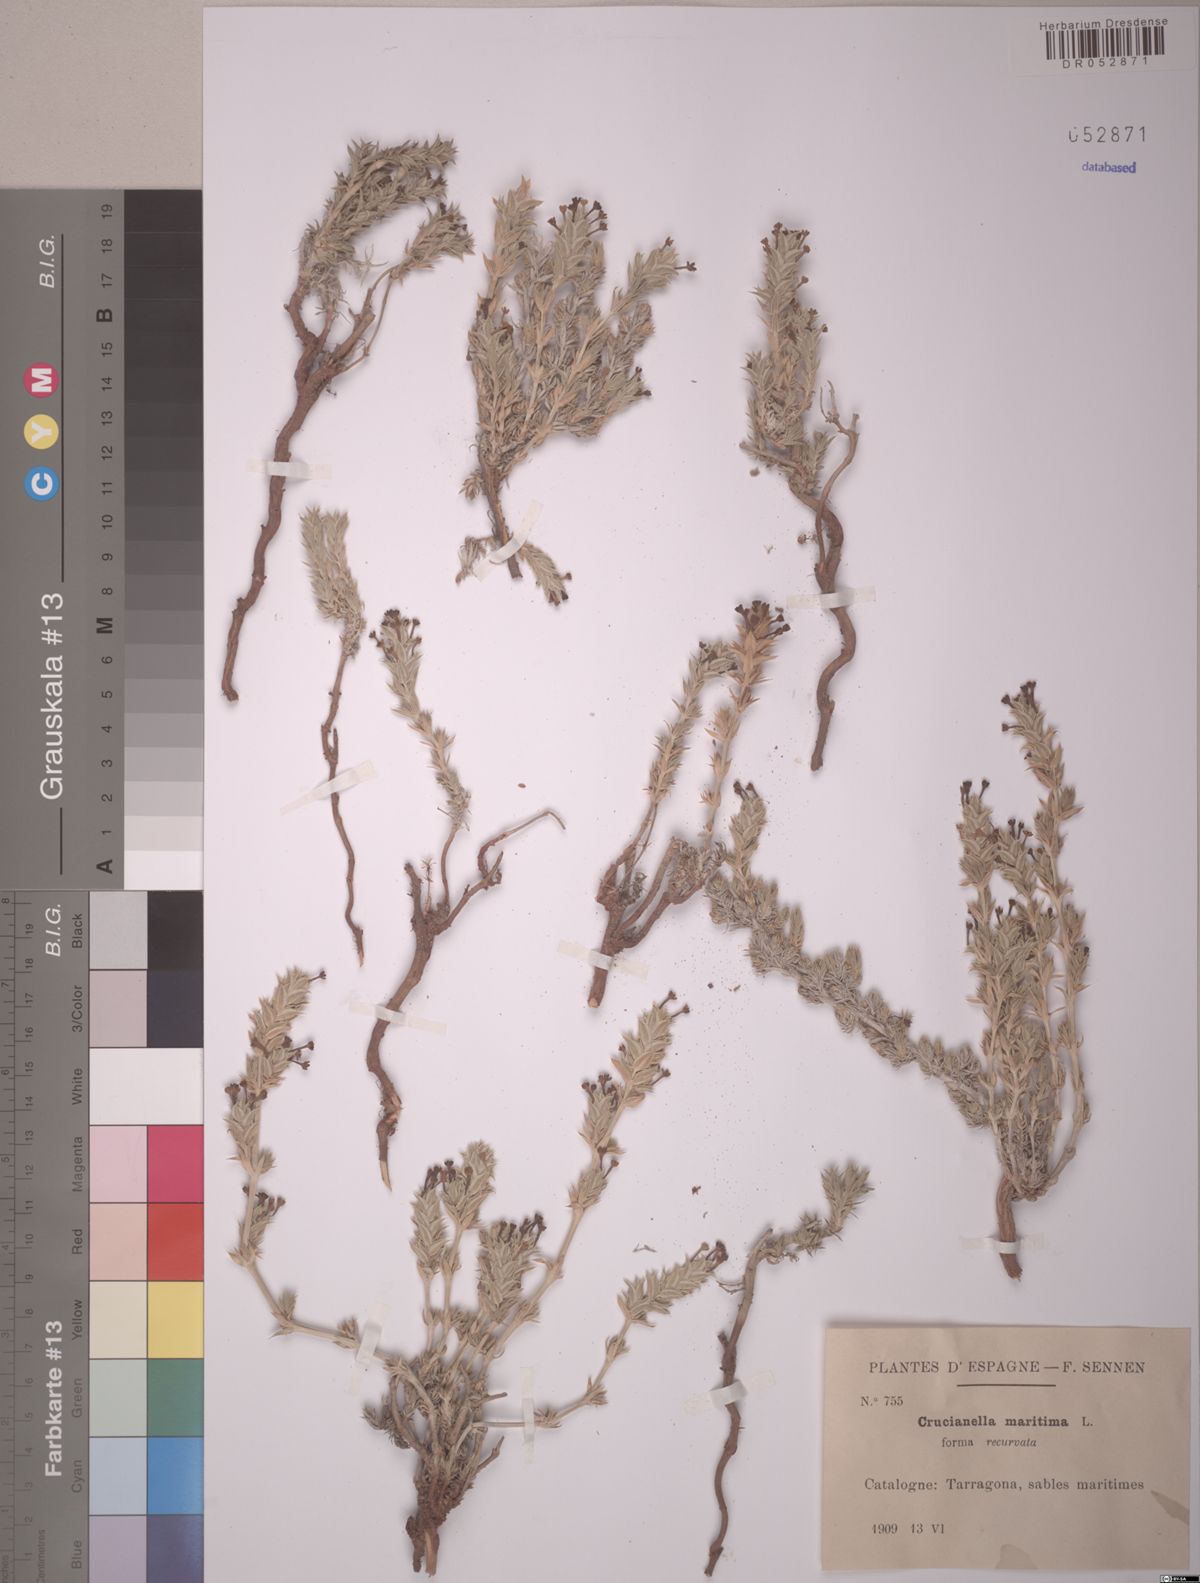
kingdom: Plantae
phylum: Tracheophyta
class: Magnoliopsida
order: Gentianales
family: Rubiaceae
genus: Crucianella
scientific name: Crucianella maritima
